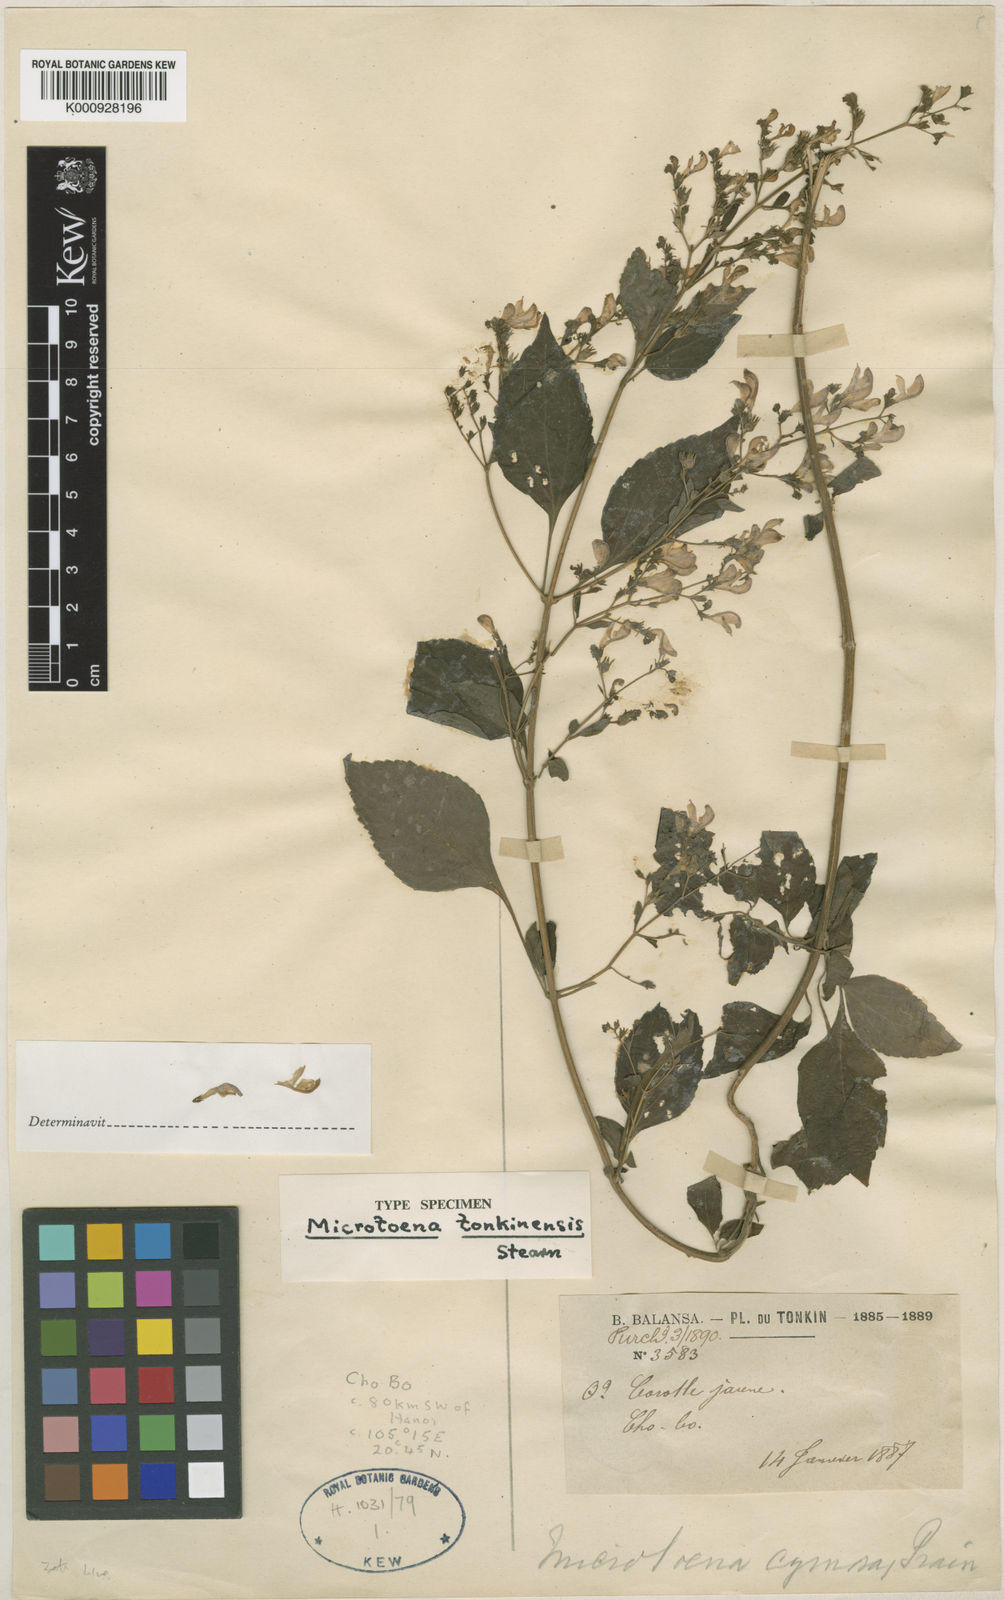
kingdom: Plantae
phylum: Tracheophyta
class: Magnoliopsida
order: Lamiales
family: Lamiaceae
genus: Microtoena
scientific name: Microtoena
